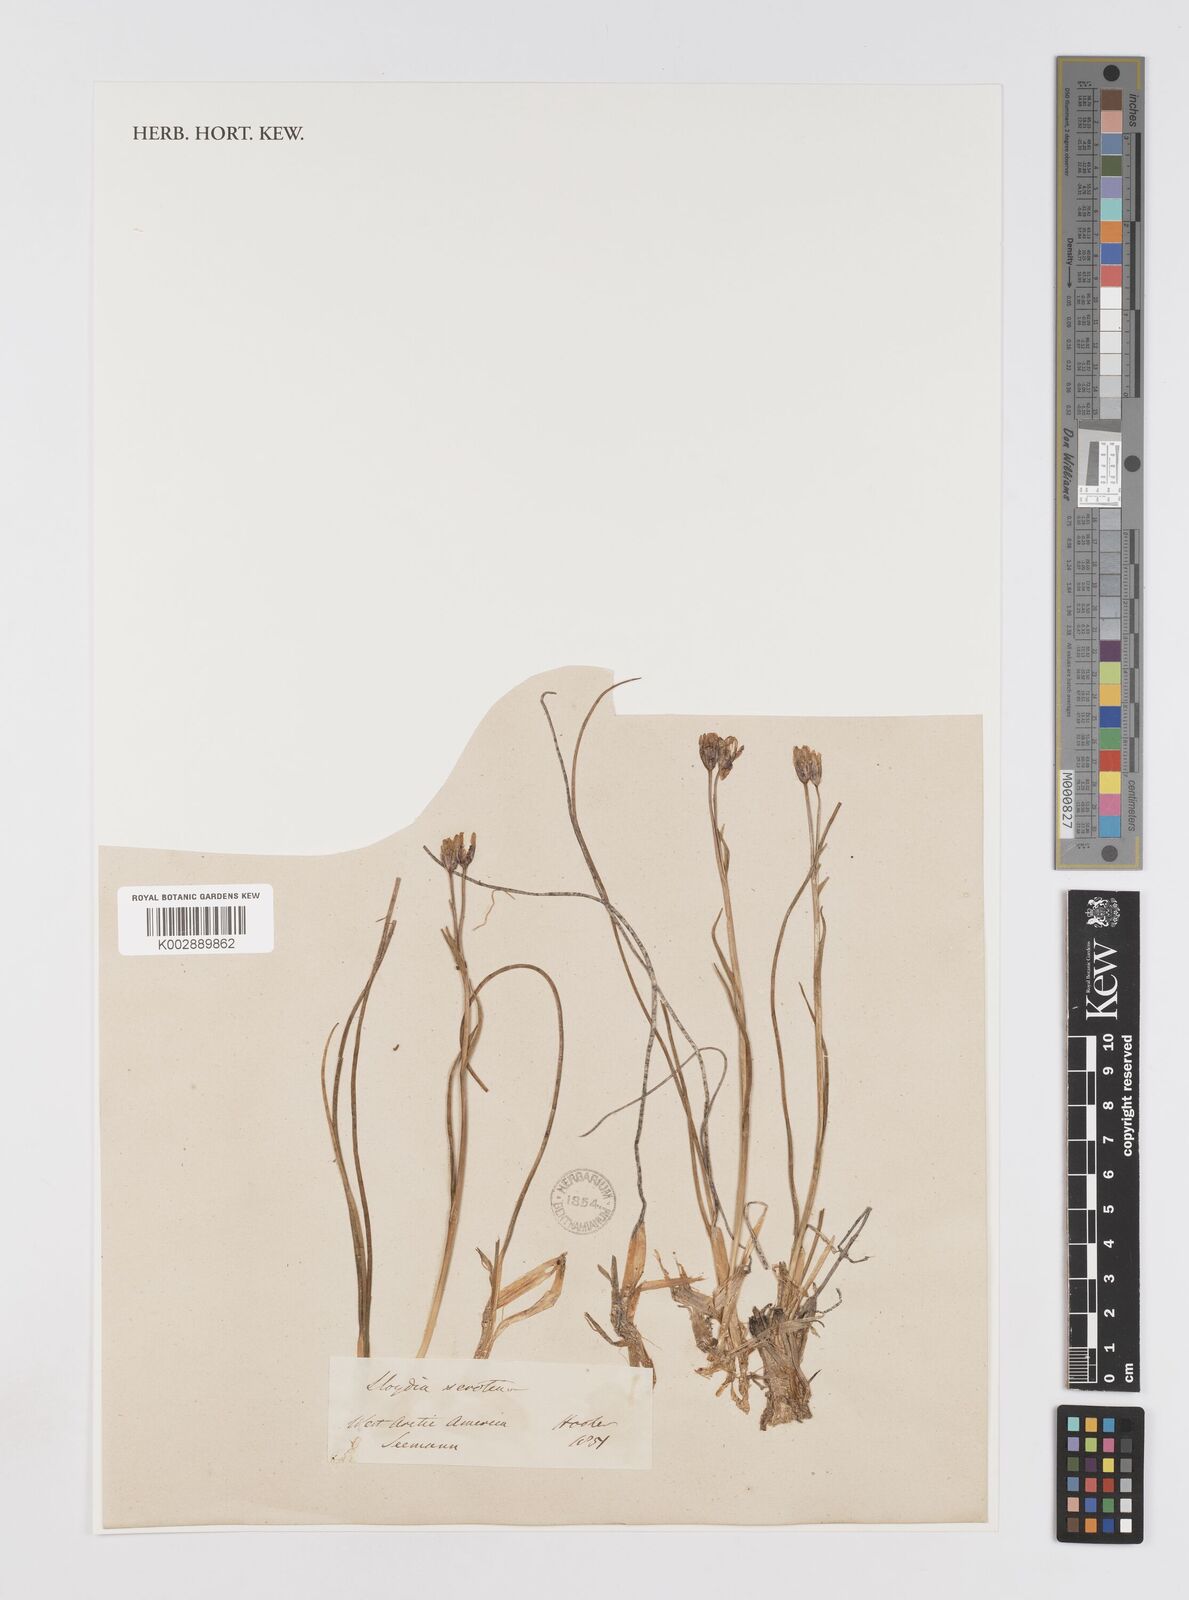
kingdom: Plantae
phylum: Tracheophyta
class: Liliopsida
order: Liliales
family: Liliaceae
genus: Gagea
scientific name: Gagea serotina
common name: Snowdon lily
